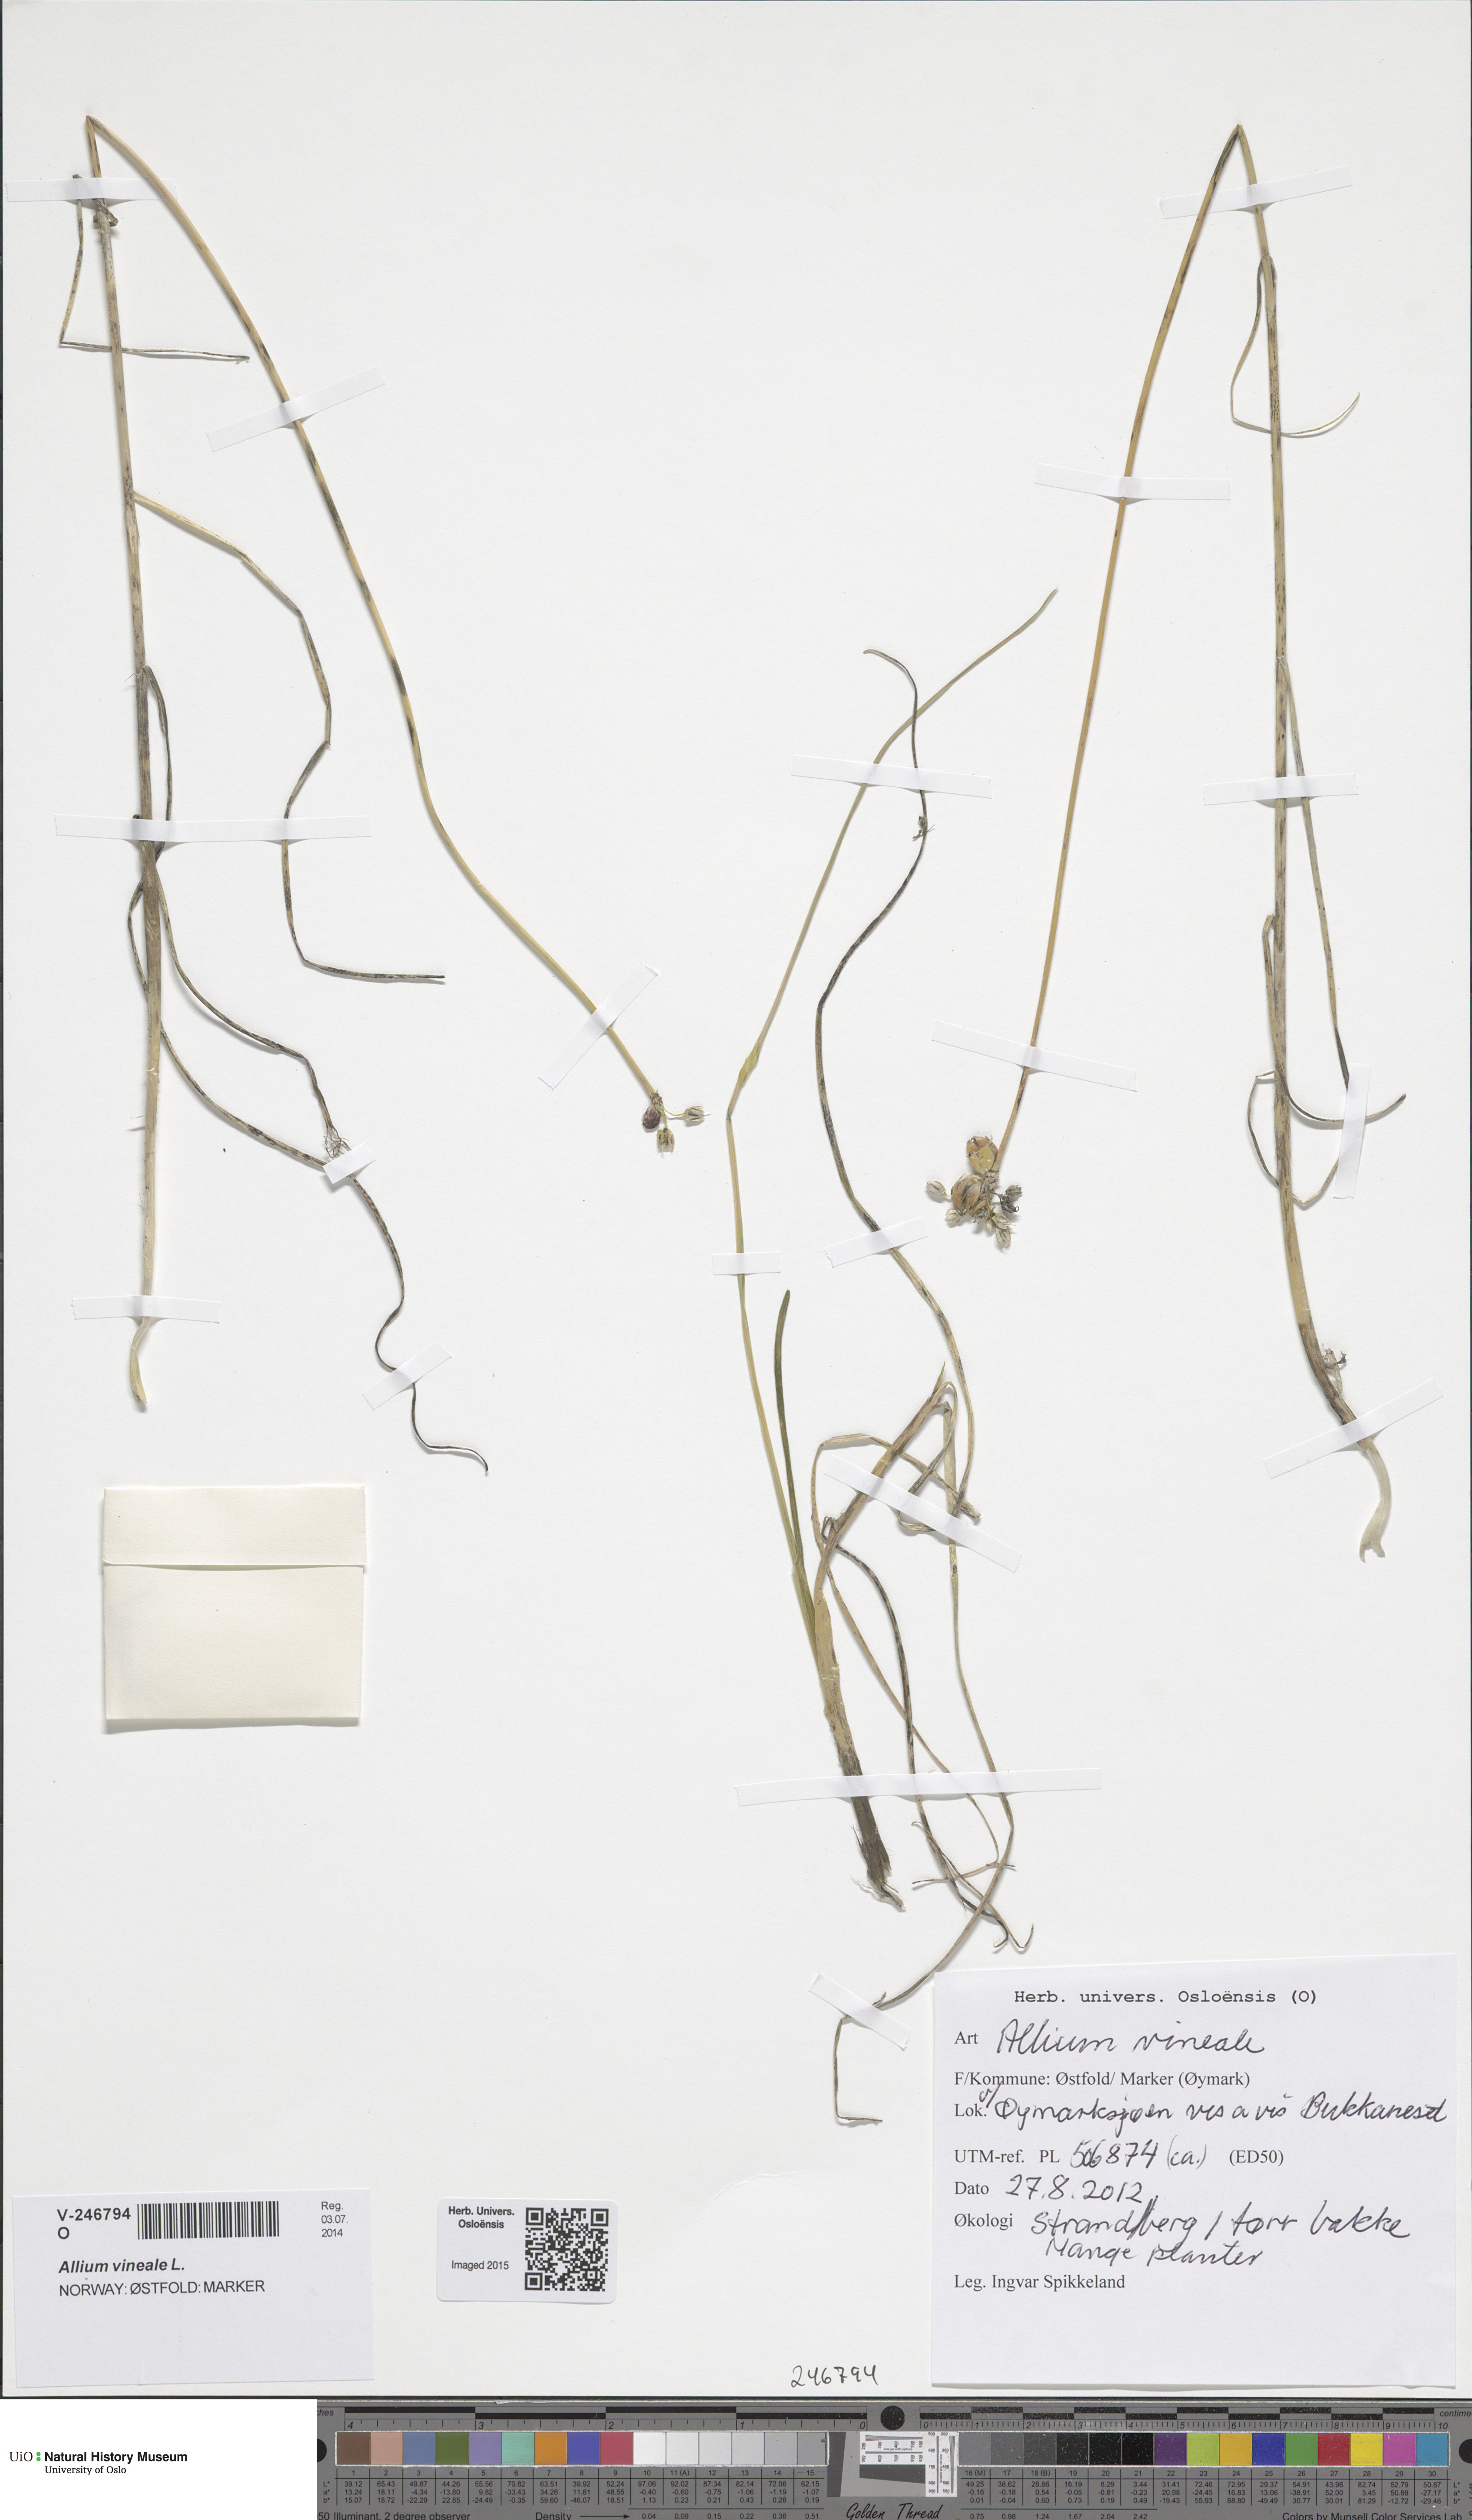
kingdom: Plantae
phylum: Tracheophyta
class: Liliopsida
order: Asparagales
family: Amaryllidaceae
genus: Allium
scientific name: Allium vineale
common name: Crow garlic
